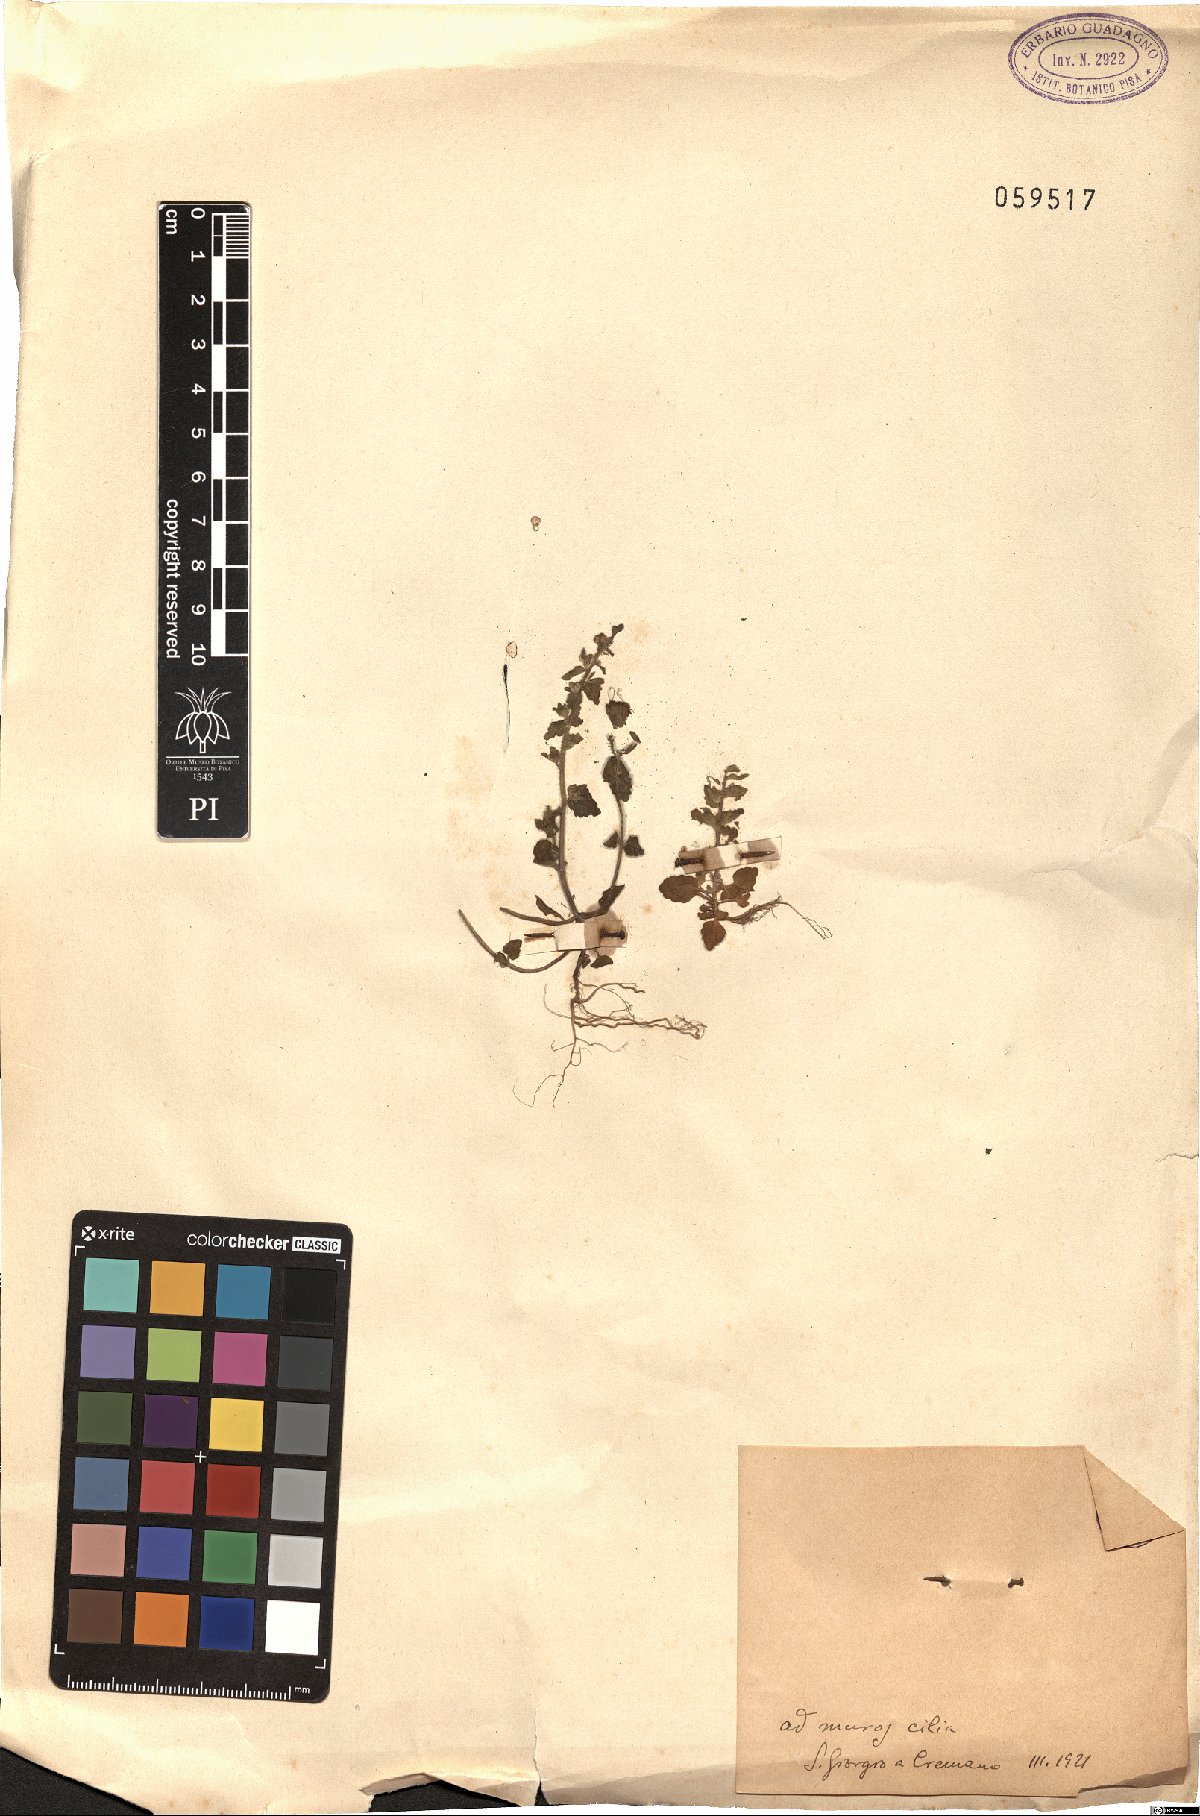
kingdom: Plantae
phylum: Tracheophyta
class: Magnoliopsida
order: Lamiales
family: Plantaginaceae
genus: Veronica
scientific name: Veronica arvensis
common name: Corn speedwell
